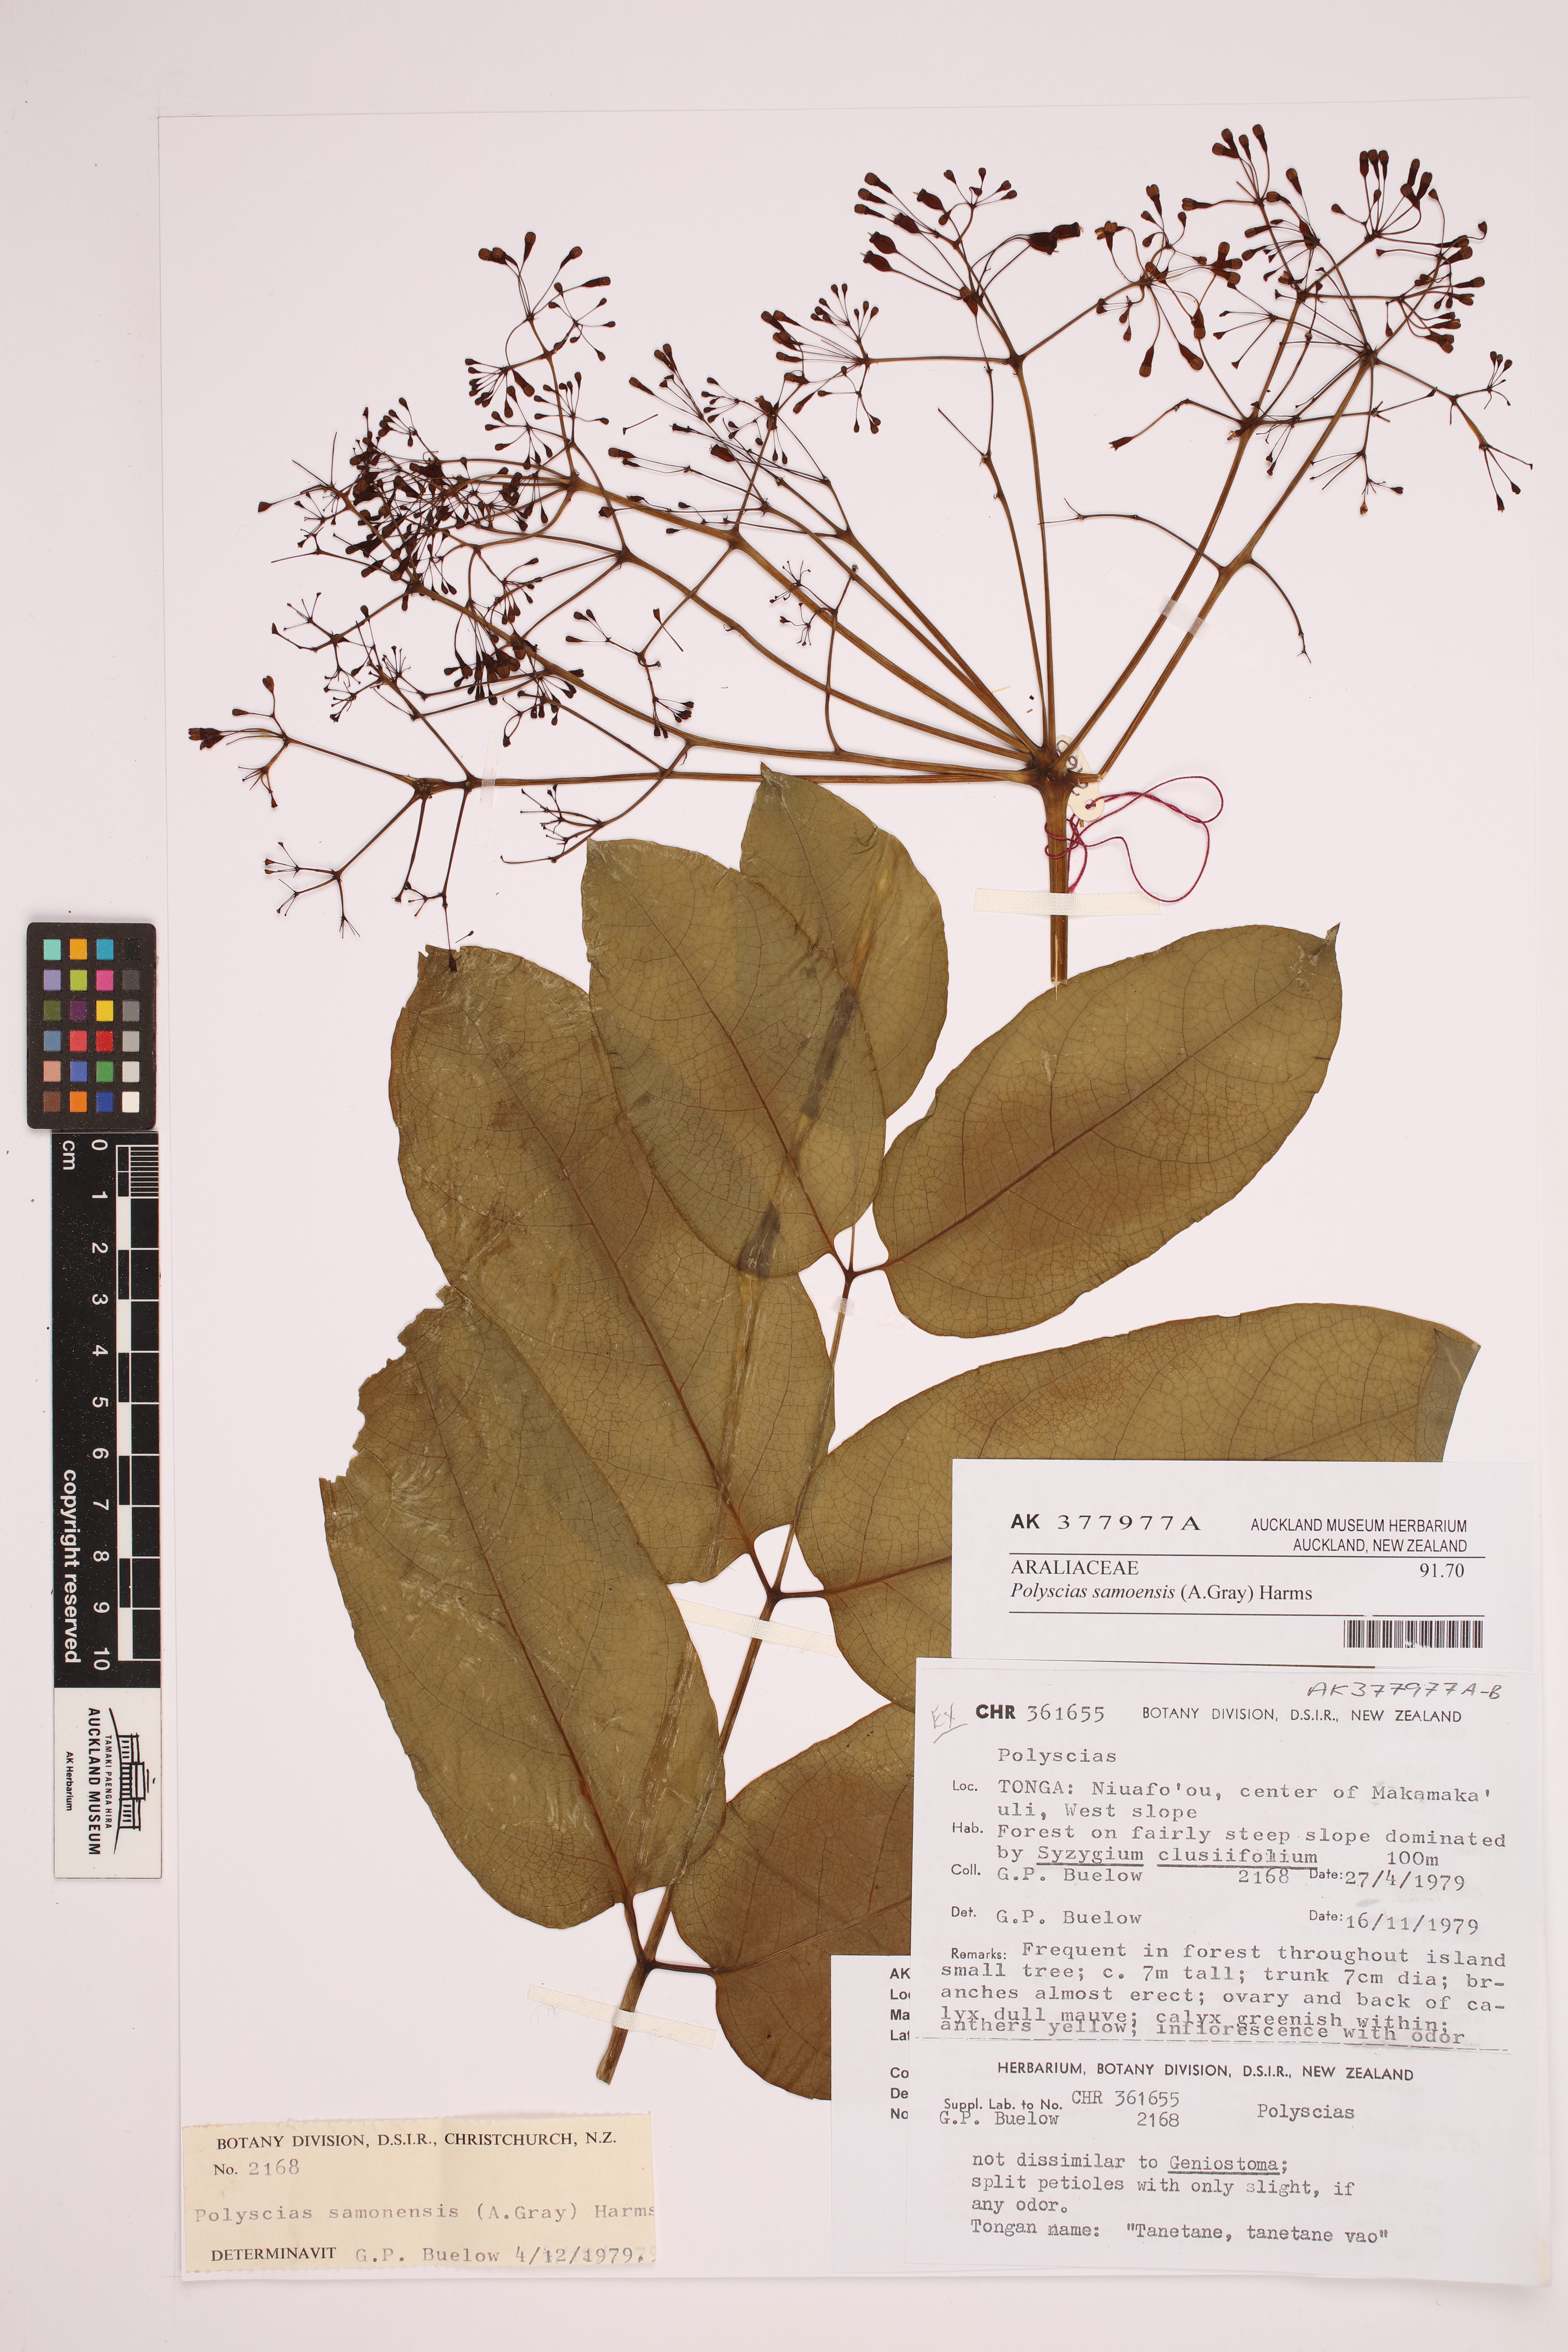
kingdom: Plantae
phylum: Tracheophyta
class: Magnoliopsida
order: Apiales
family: Araliaceae
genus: Polyscias
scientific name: Polyscias samoensis
